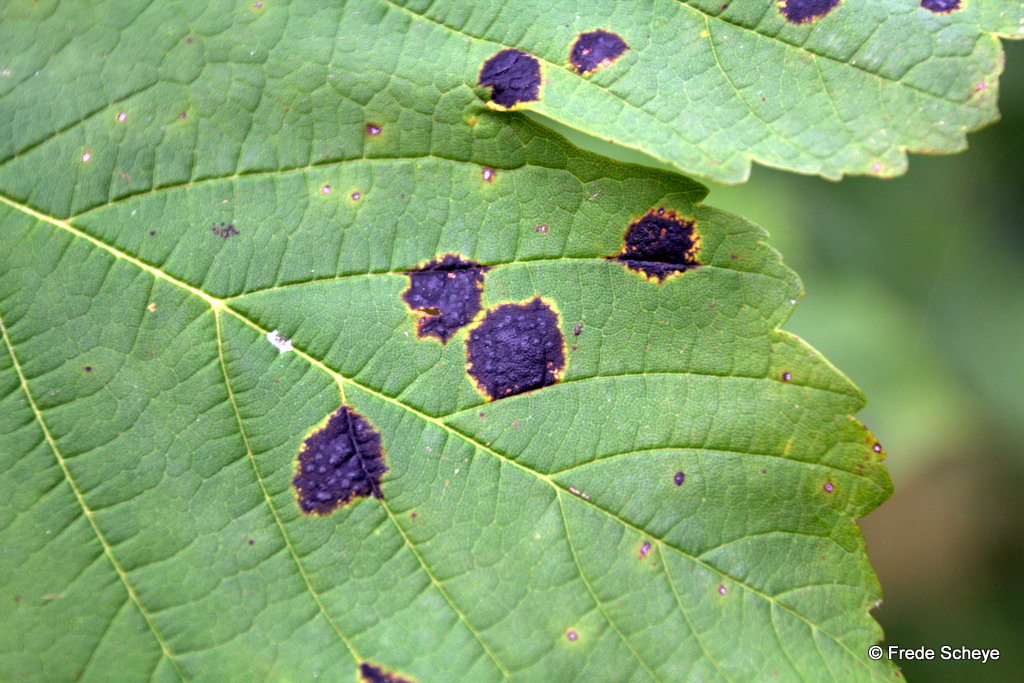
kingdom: Fungi
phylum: Ascomycota
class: Leotiomycetes
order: Rhytismatales
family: Rhytismataceae
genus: Rhytisma
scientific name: Rhytisma acerinum
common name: ahorn-rynkeplet
